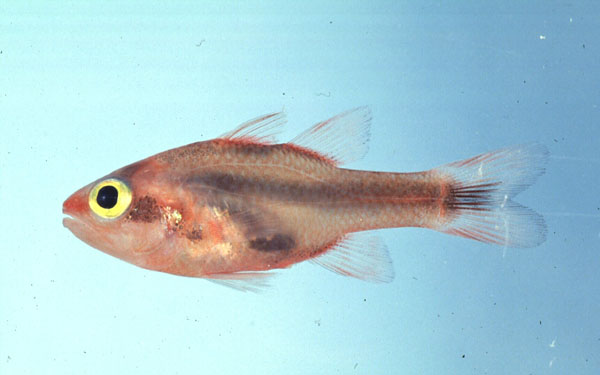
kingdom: Animalia
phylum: Chordata
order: Perciformes
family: Apogonidae
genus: Apogon
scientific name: Apogon semiornatus
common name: Threeband cardinalfish
